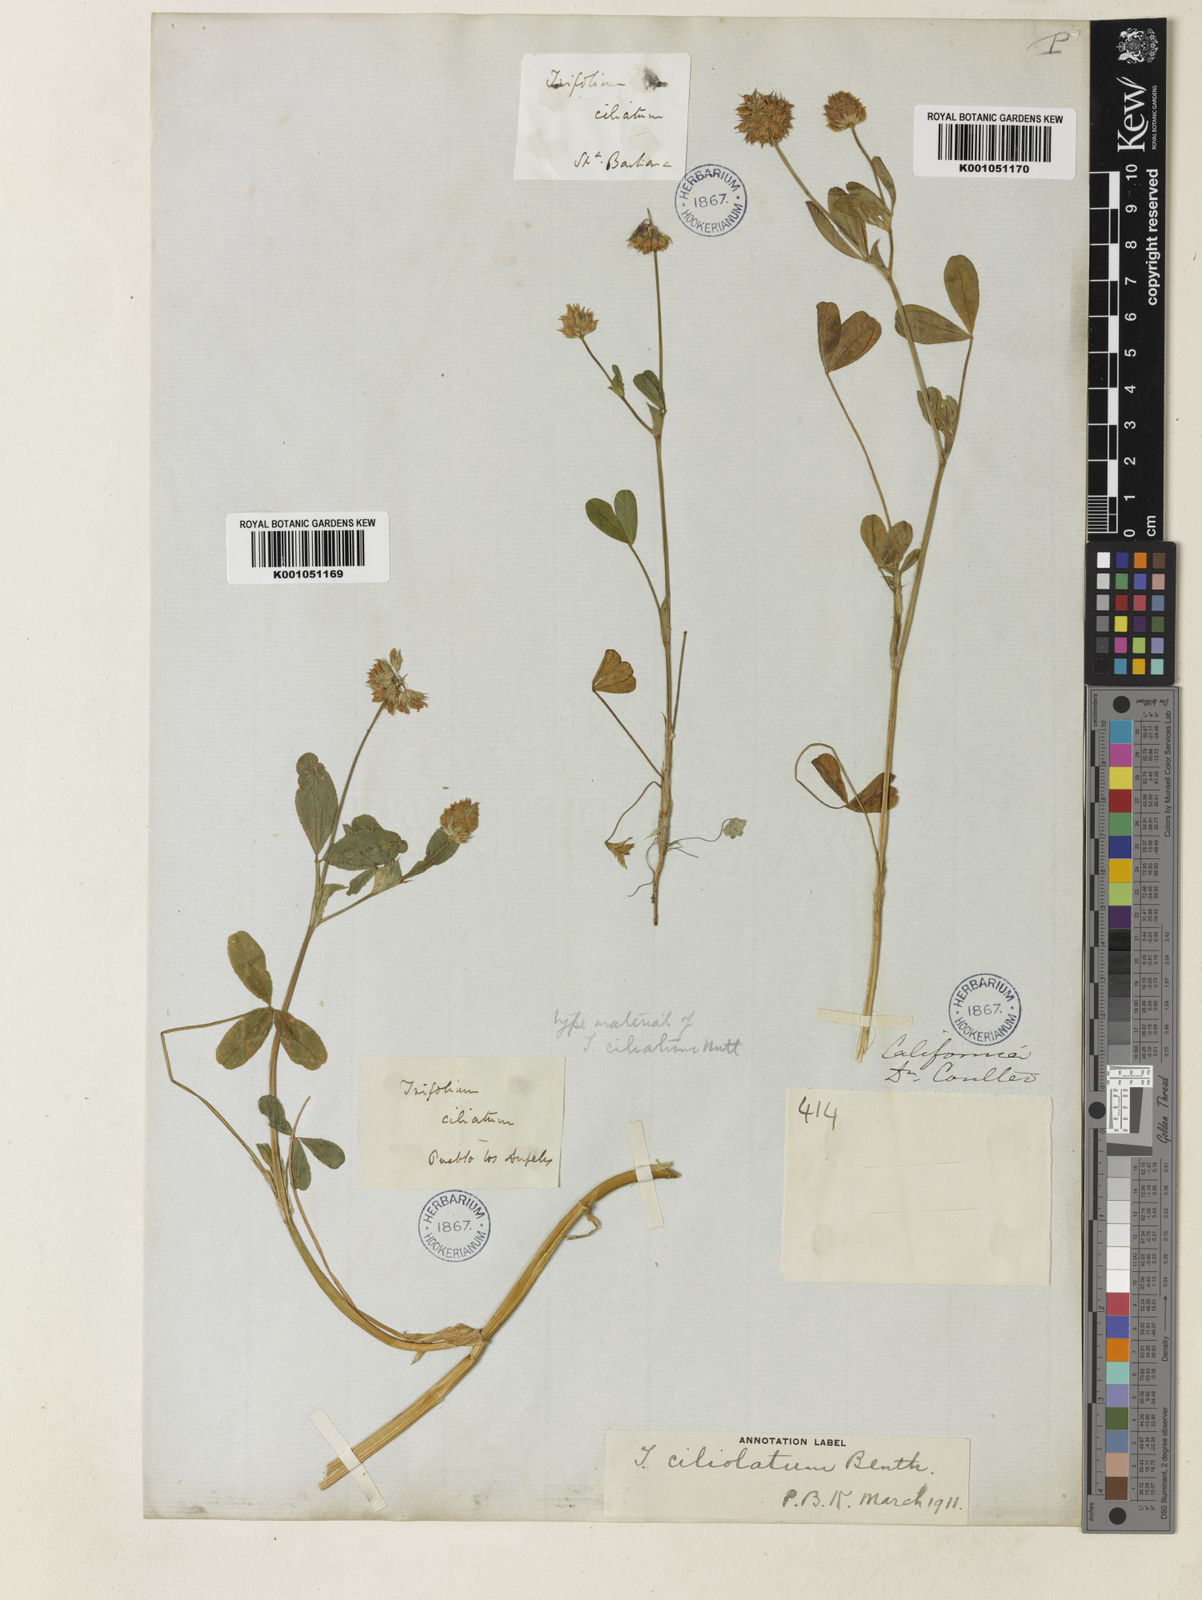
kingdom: Plantae
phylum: Tracheophyta
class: Magnoliopsida
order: Fabales
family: Fabaceae
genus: Trifolium
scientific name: Trifolium ciliolatum
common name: Foothill clover
